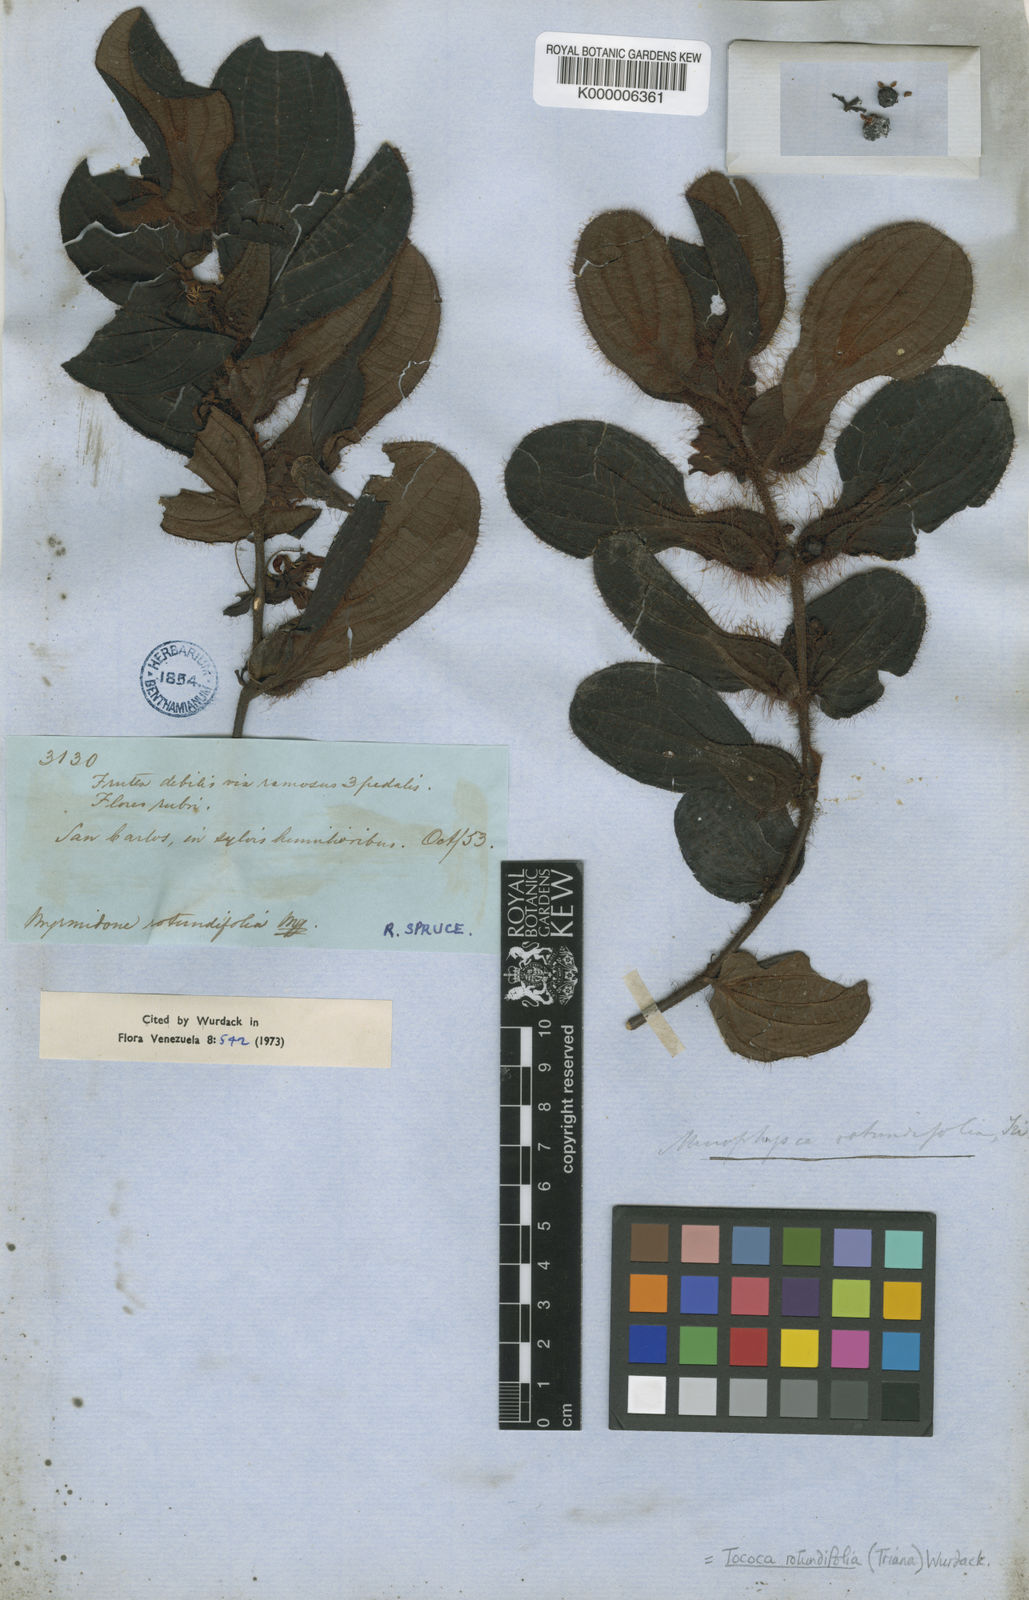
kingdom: Plantae
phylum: Tracheophyta
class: Magnoliopsida
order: Myrtales
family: Melastomataceae
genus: Miconia
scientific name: Miconia rubripetala
